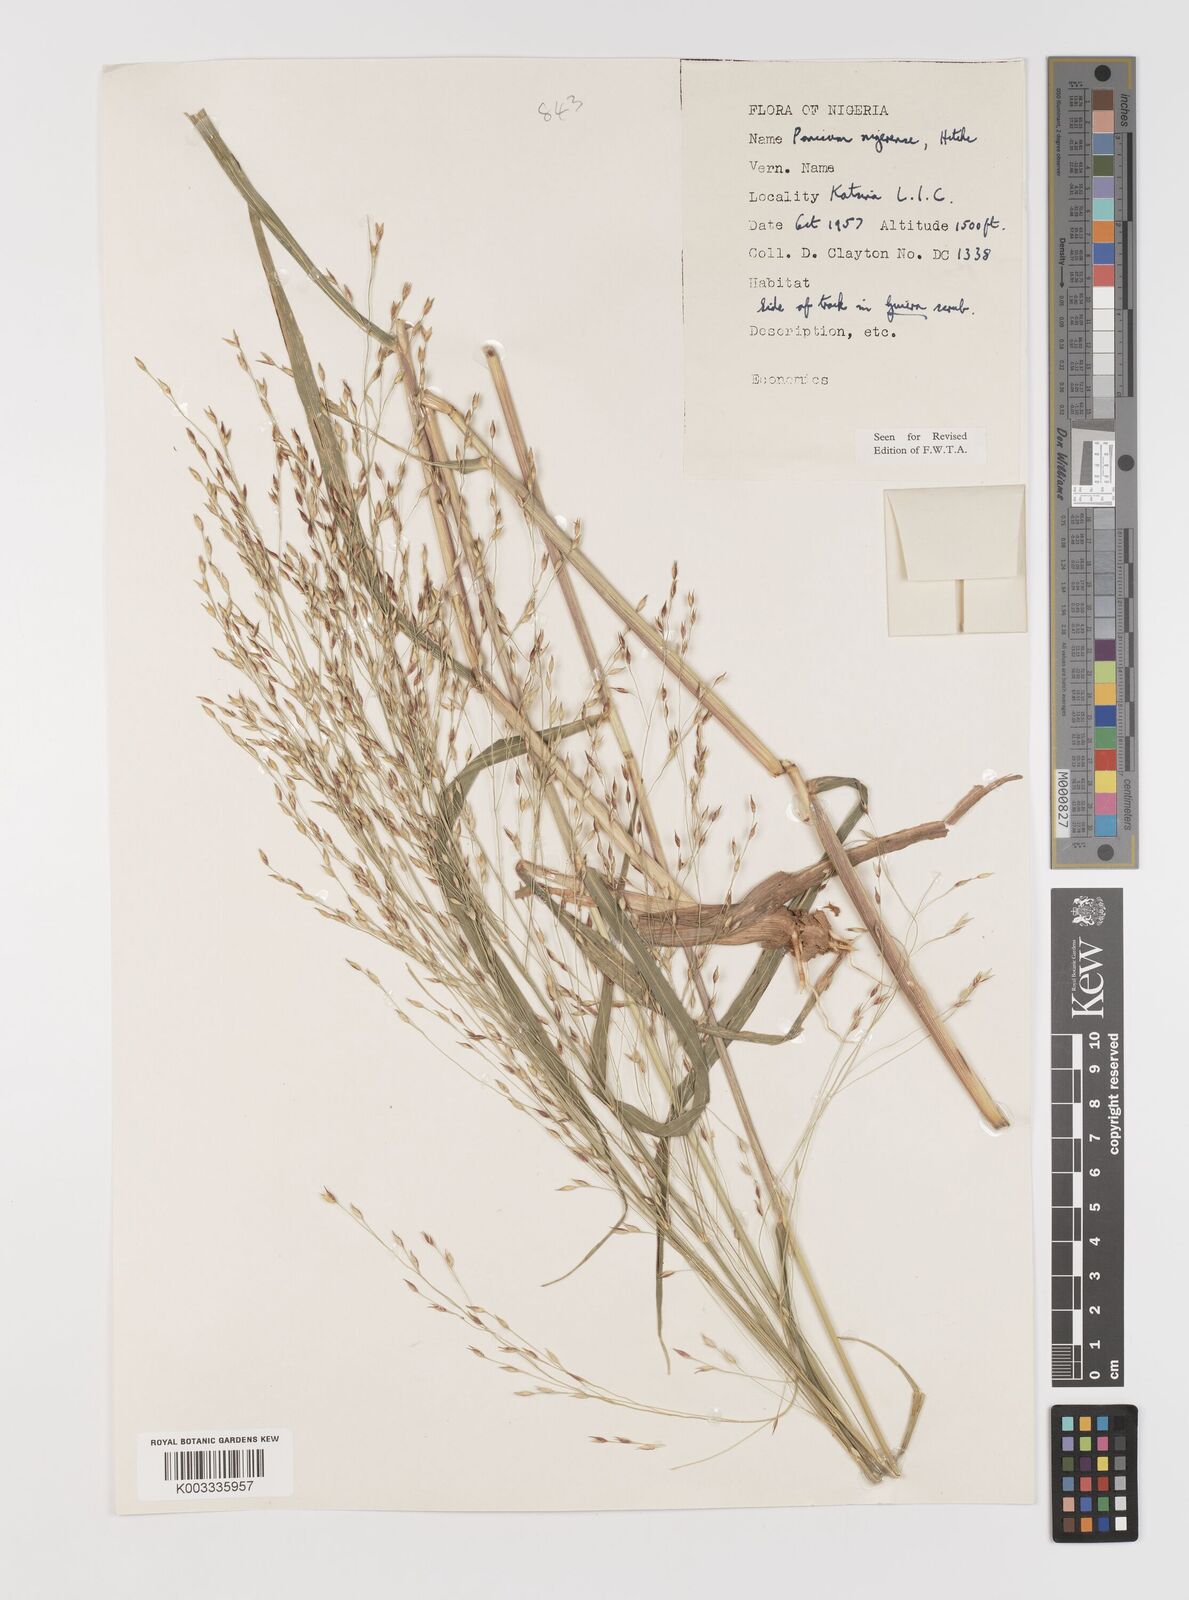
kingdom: Plantae
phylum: Tracheophyta
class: Liliopsida
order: Poales
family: Poaceae
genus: Panicum
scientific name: Panicum nigerense
